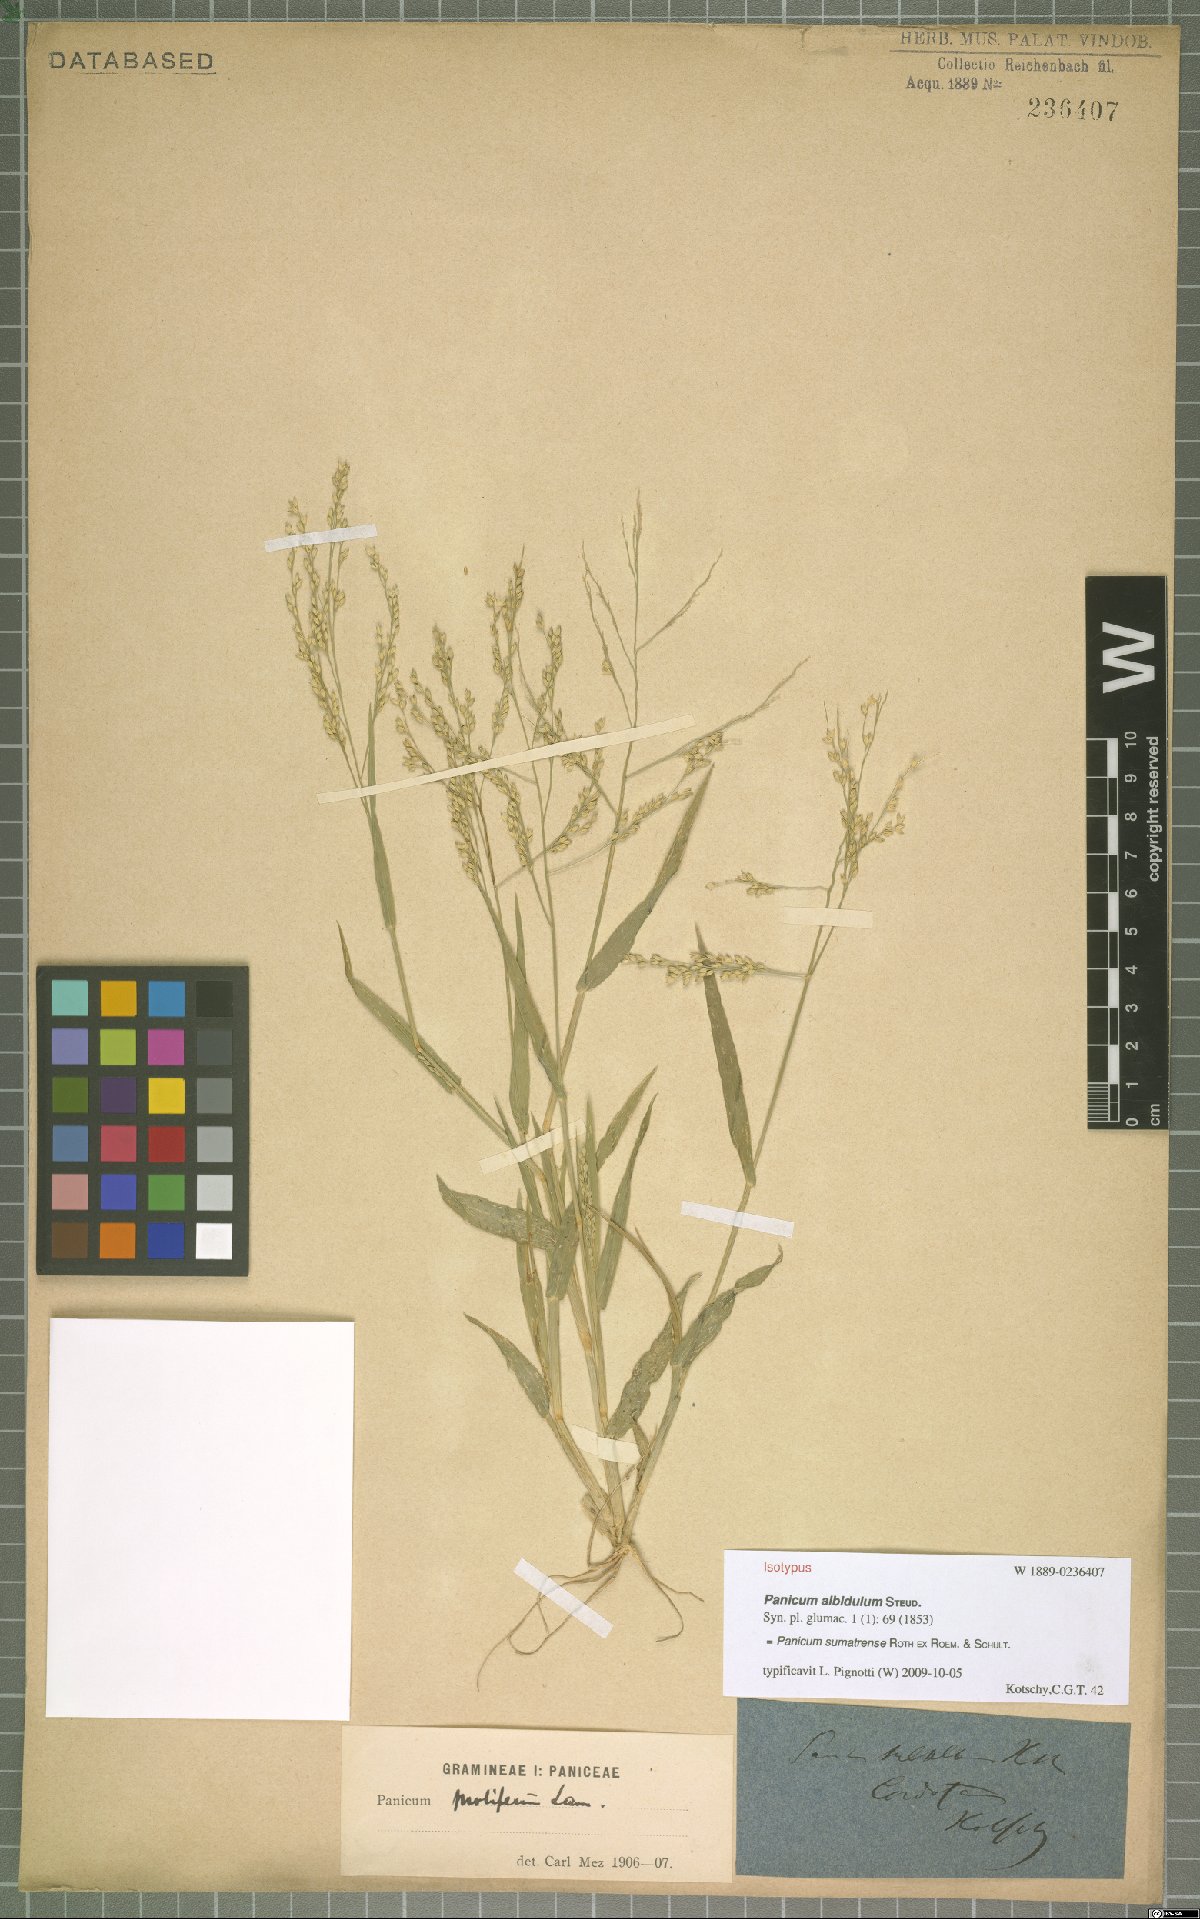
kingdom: Plantae
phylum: Tracheophyta
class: Liliopsida
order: Poales
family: Poaceae
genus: Panicum
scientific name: Panicum sumatrense
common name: Little millet
